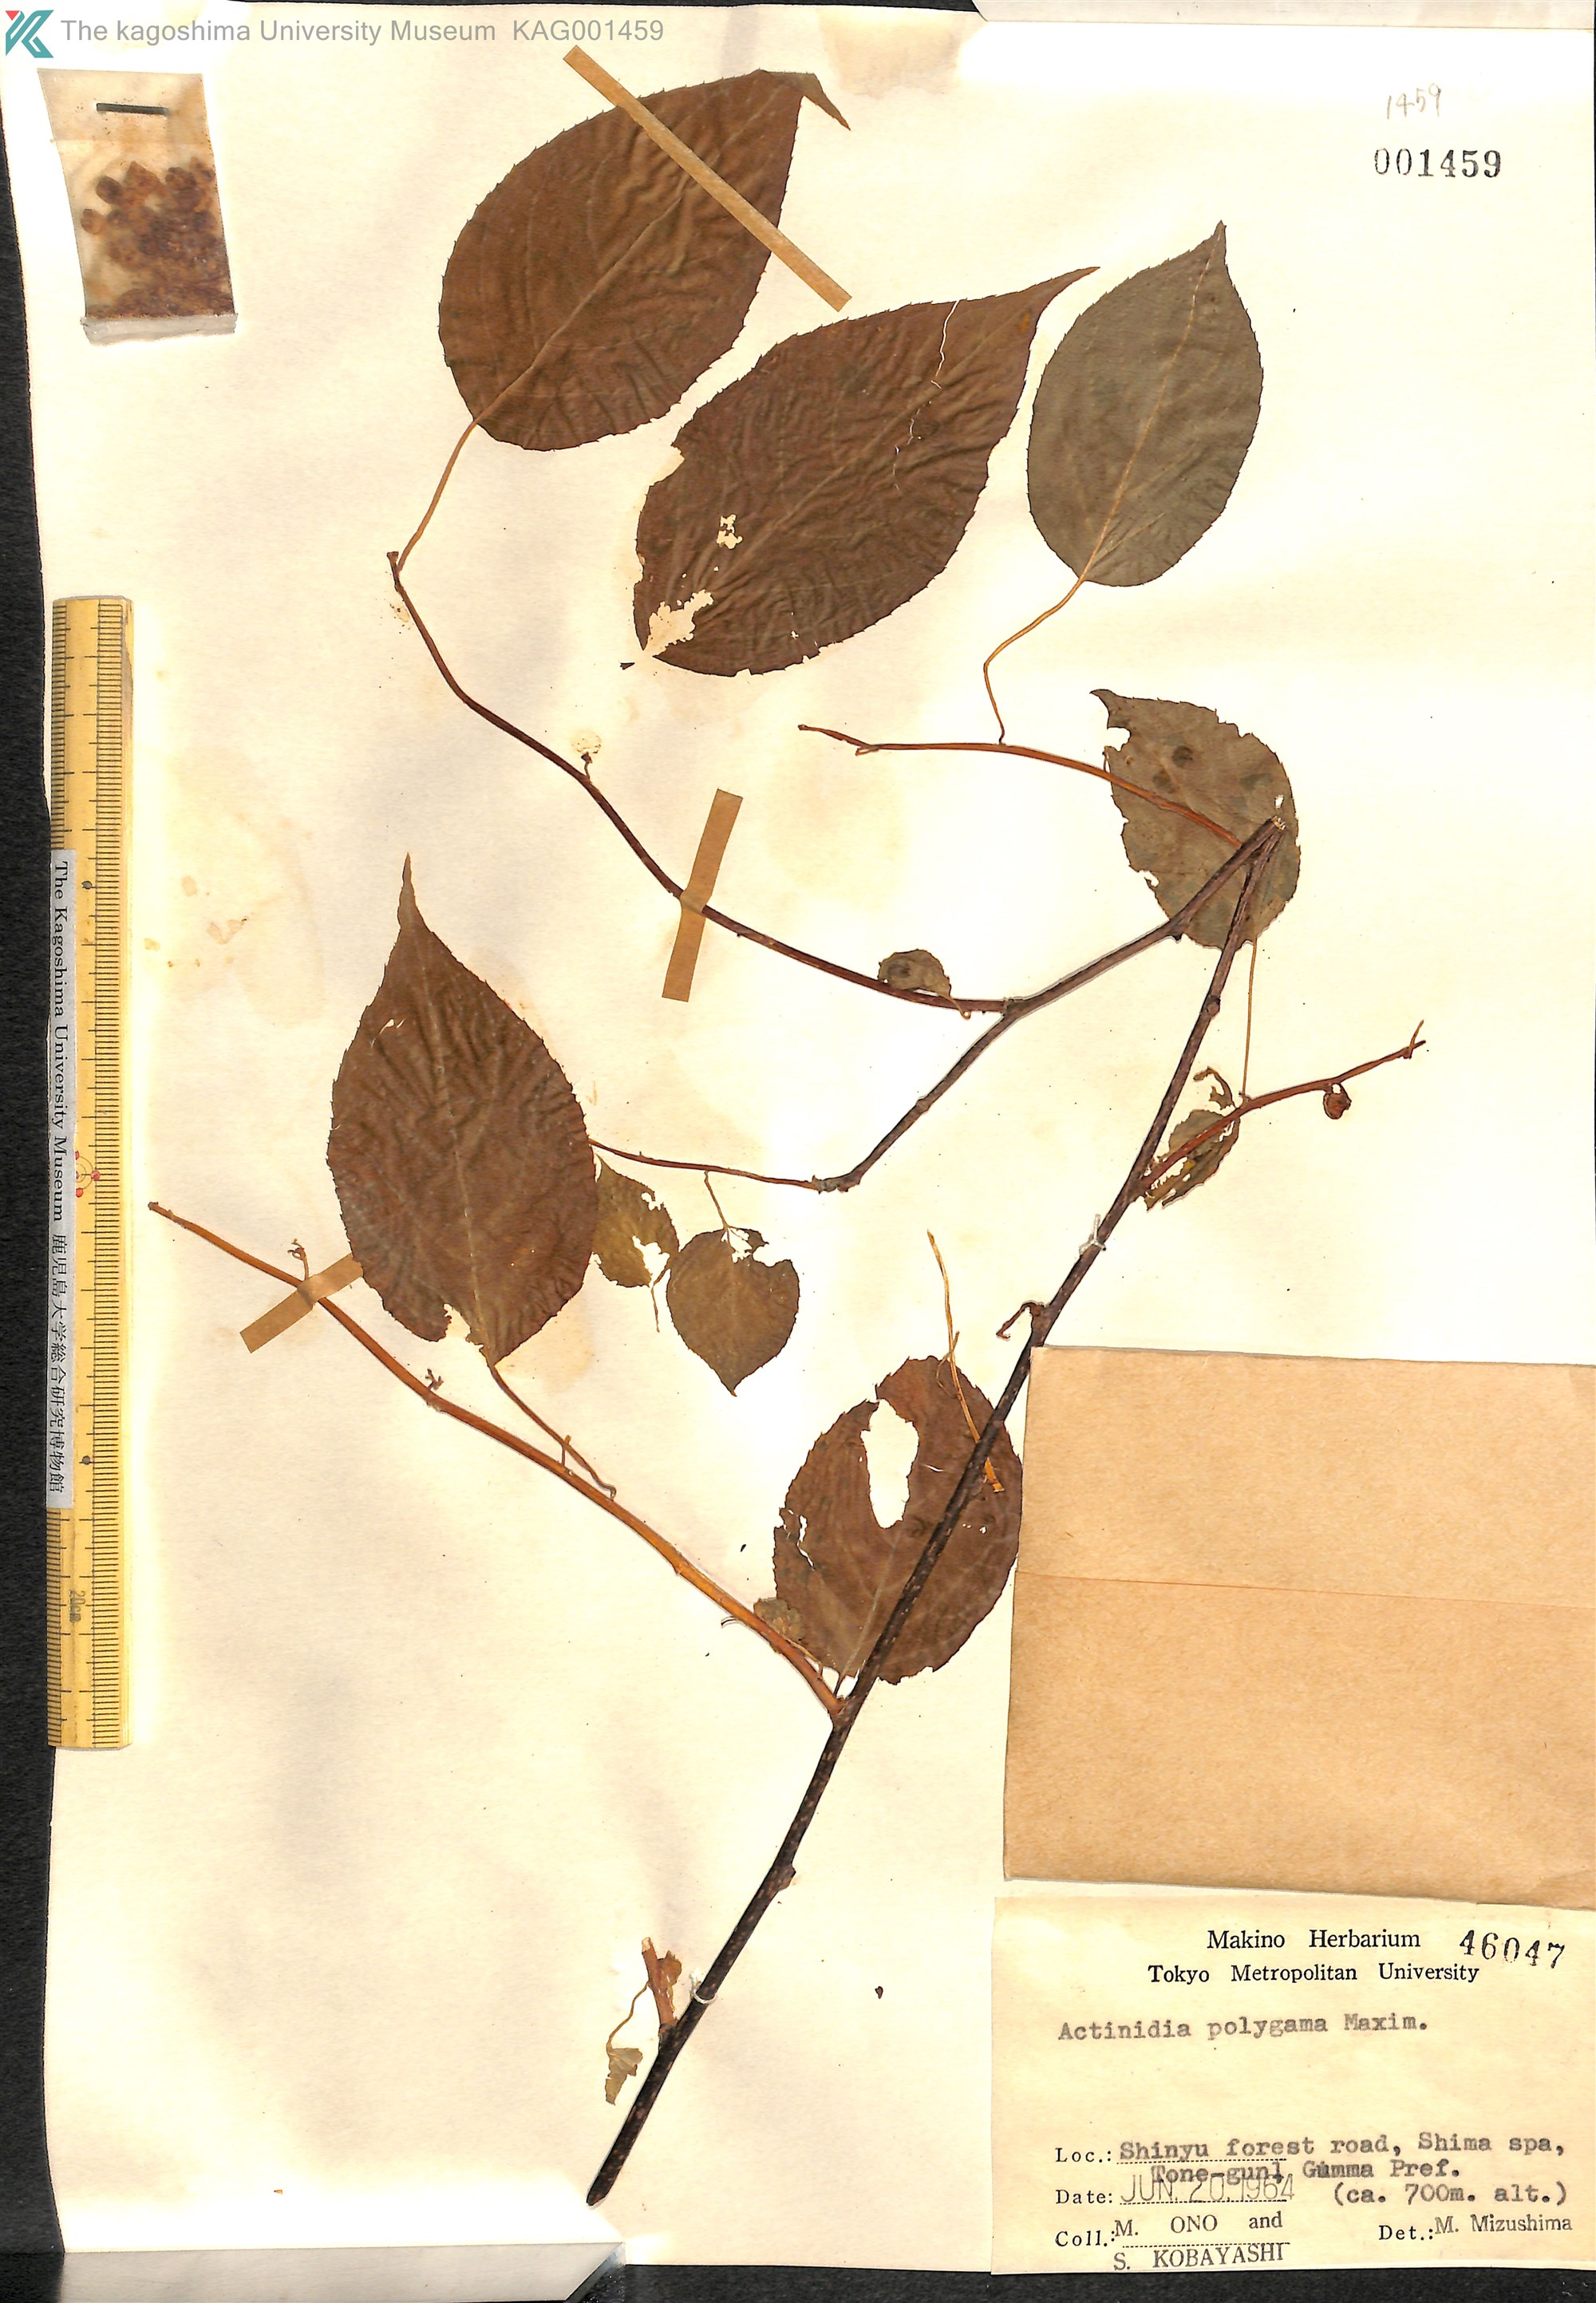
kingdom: Plantae
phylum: Tracheophyta
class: Magnoliopsida
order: Ericales
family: Actinidiaceae
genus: Actinidia
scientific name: Actinidia polygama
